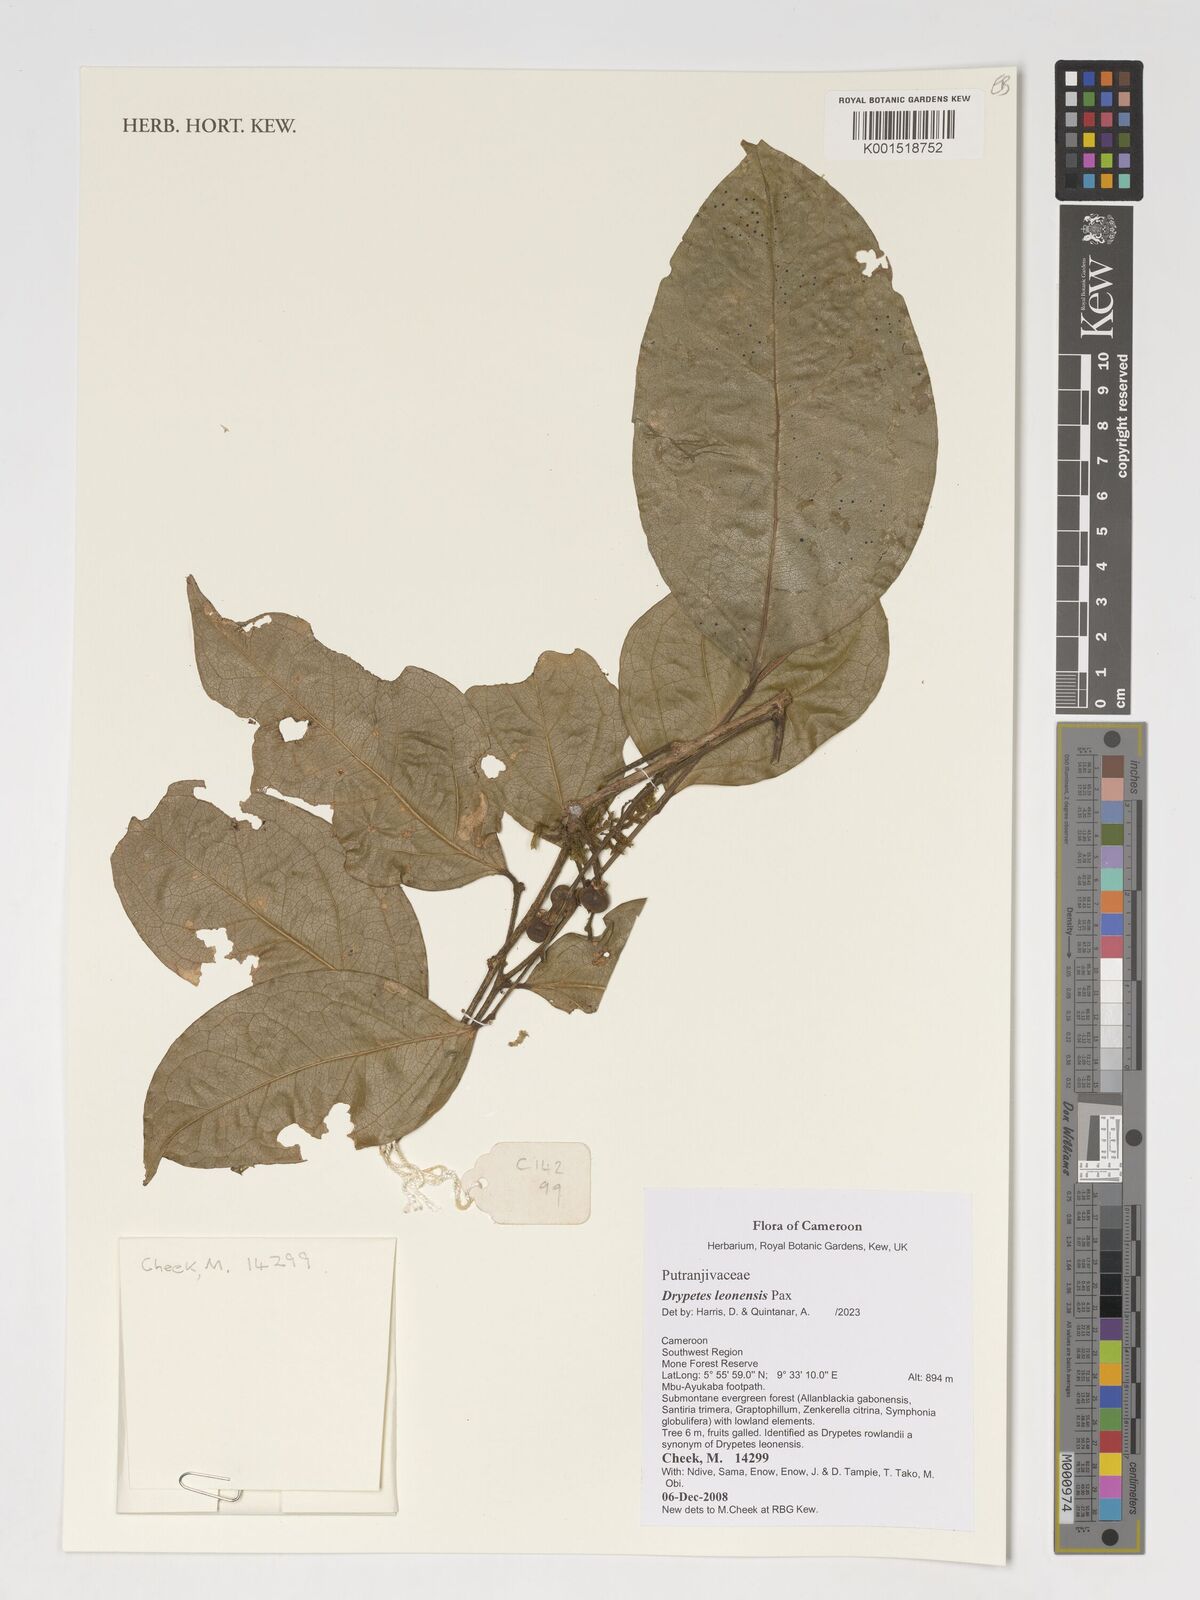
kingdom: Plantae
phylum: Tracheophyta
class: Magnoliopsida
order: Malpighiales
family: Putranjivaceae
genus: Drypetes
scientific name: Drypetes leonensis
